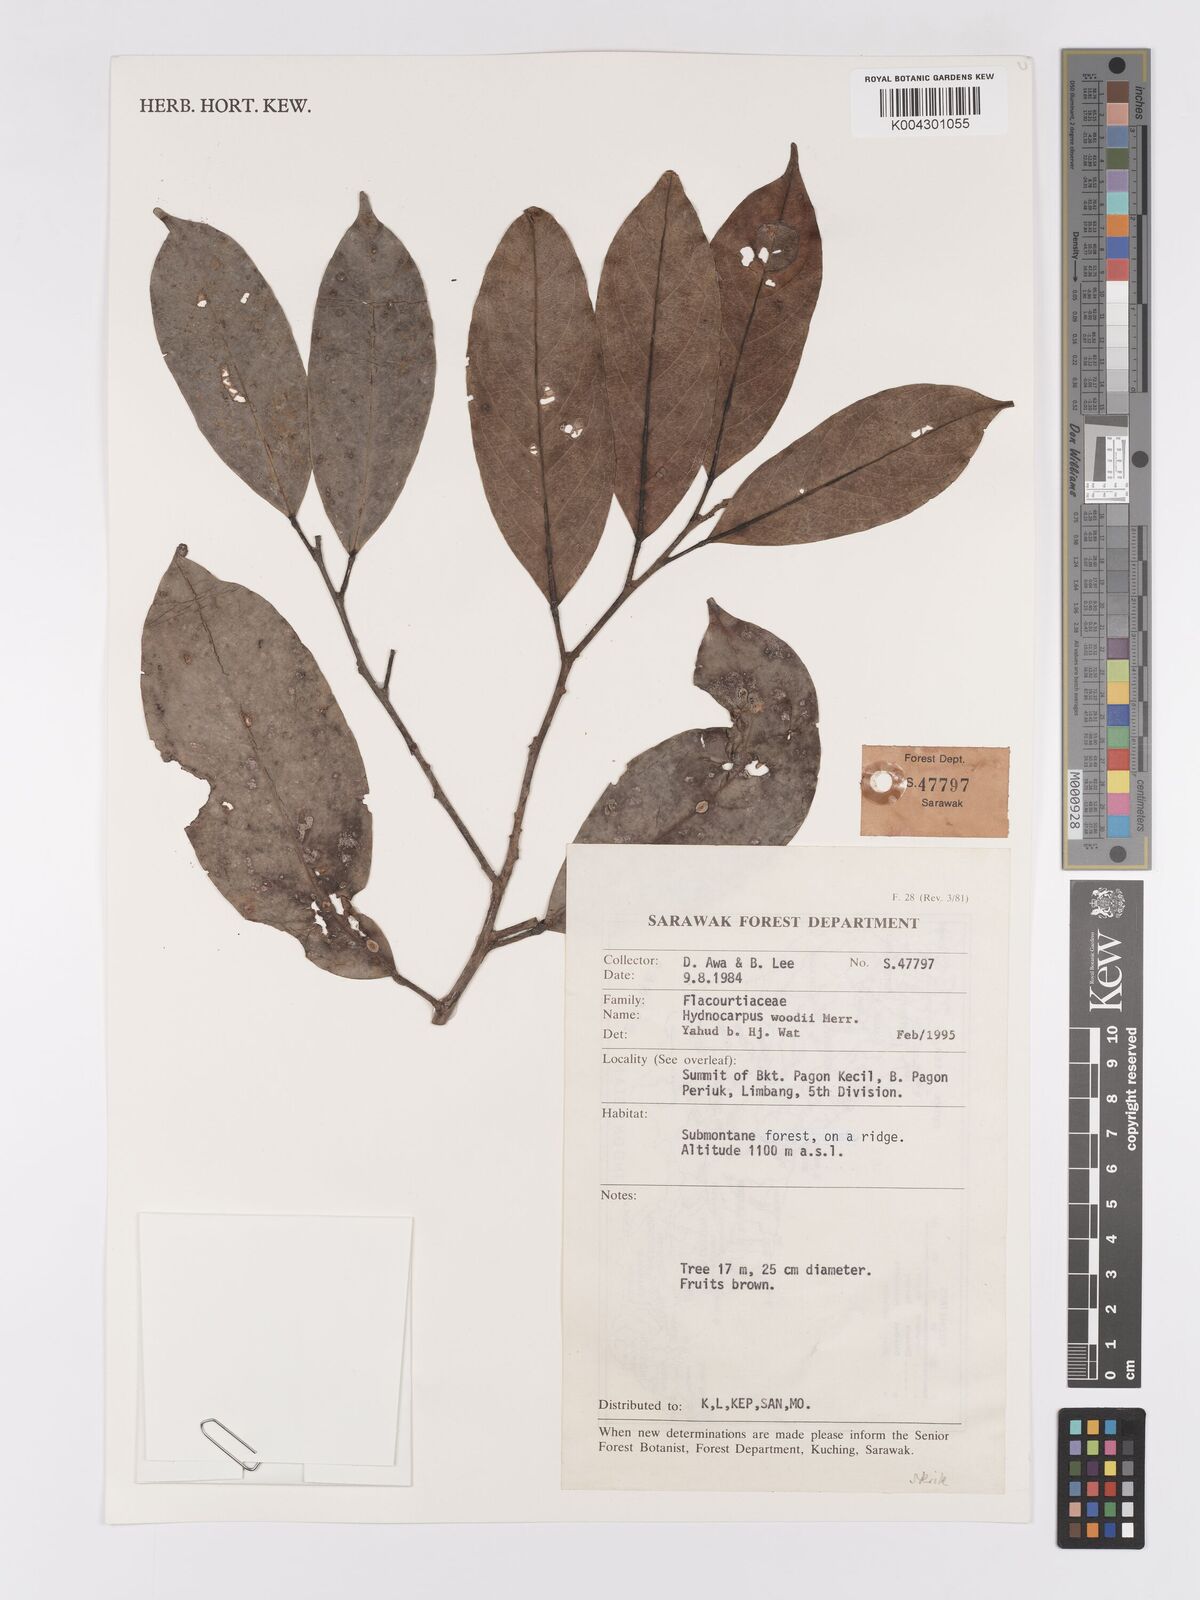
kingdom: Plantae
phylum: Tracheophyta
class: Magnoliopsida
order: Malpighiales
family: Achariaceae
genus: Hydnocarpus
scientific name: Hydnocarpus woodii
